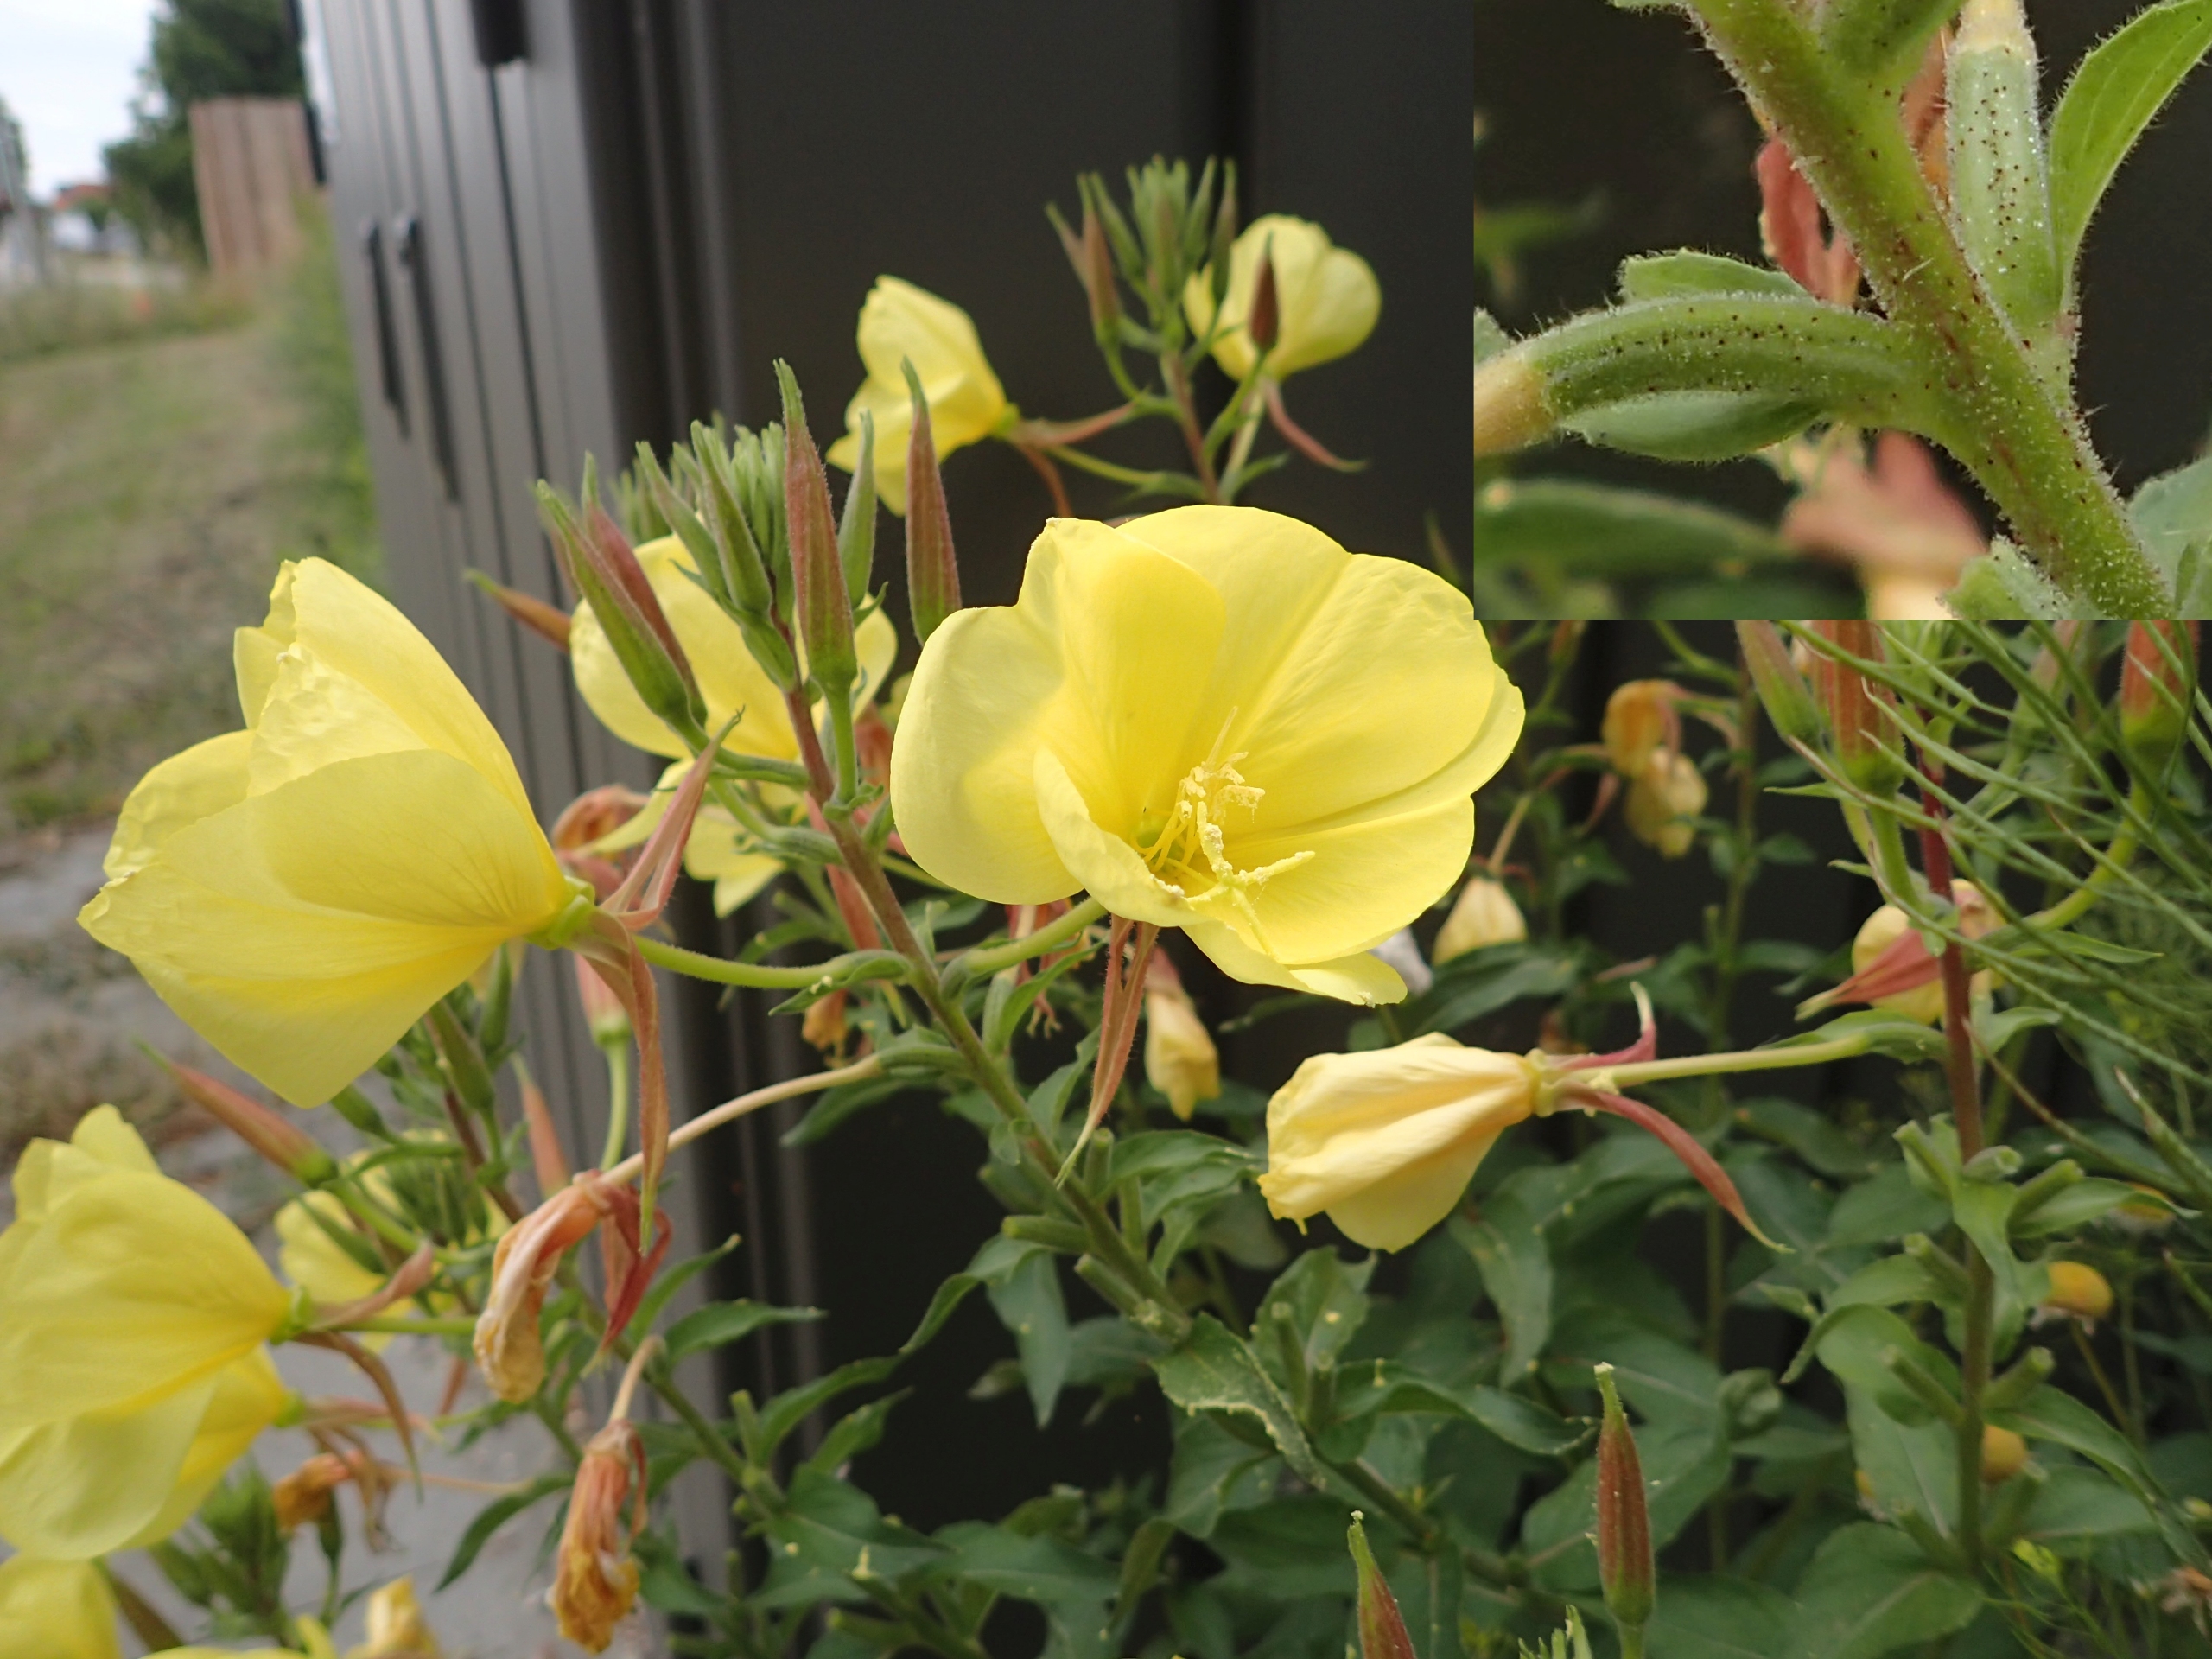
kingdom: Plantae
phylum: Tracheophyta
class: Magnoliopsida
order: Myrtales
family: Onagraceae
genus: Oenothera
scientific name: Oenothera glazioviana
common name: Kæmpe-natlys
